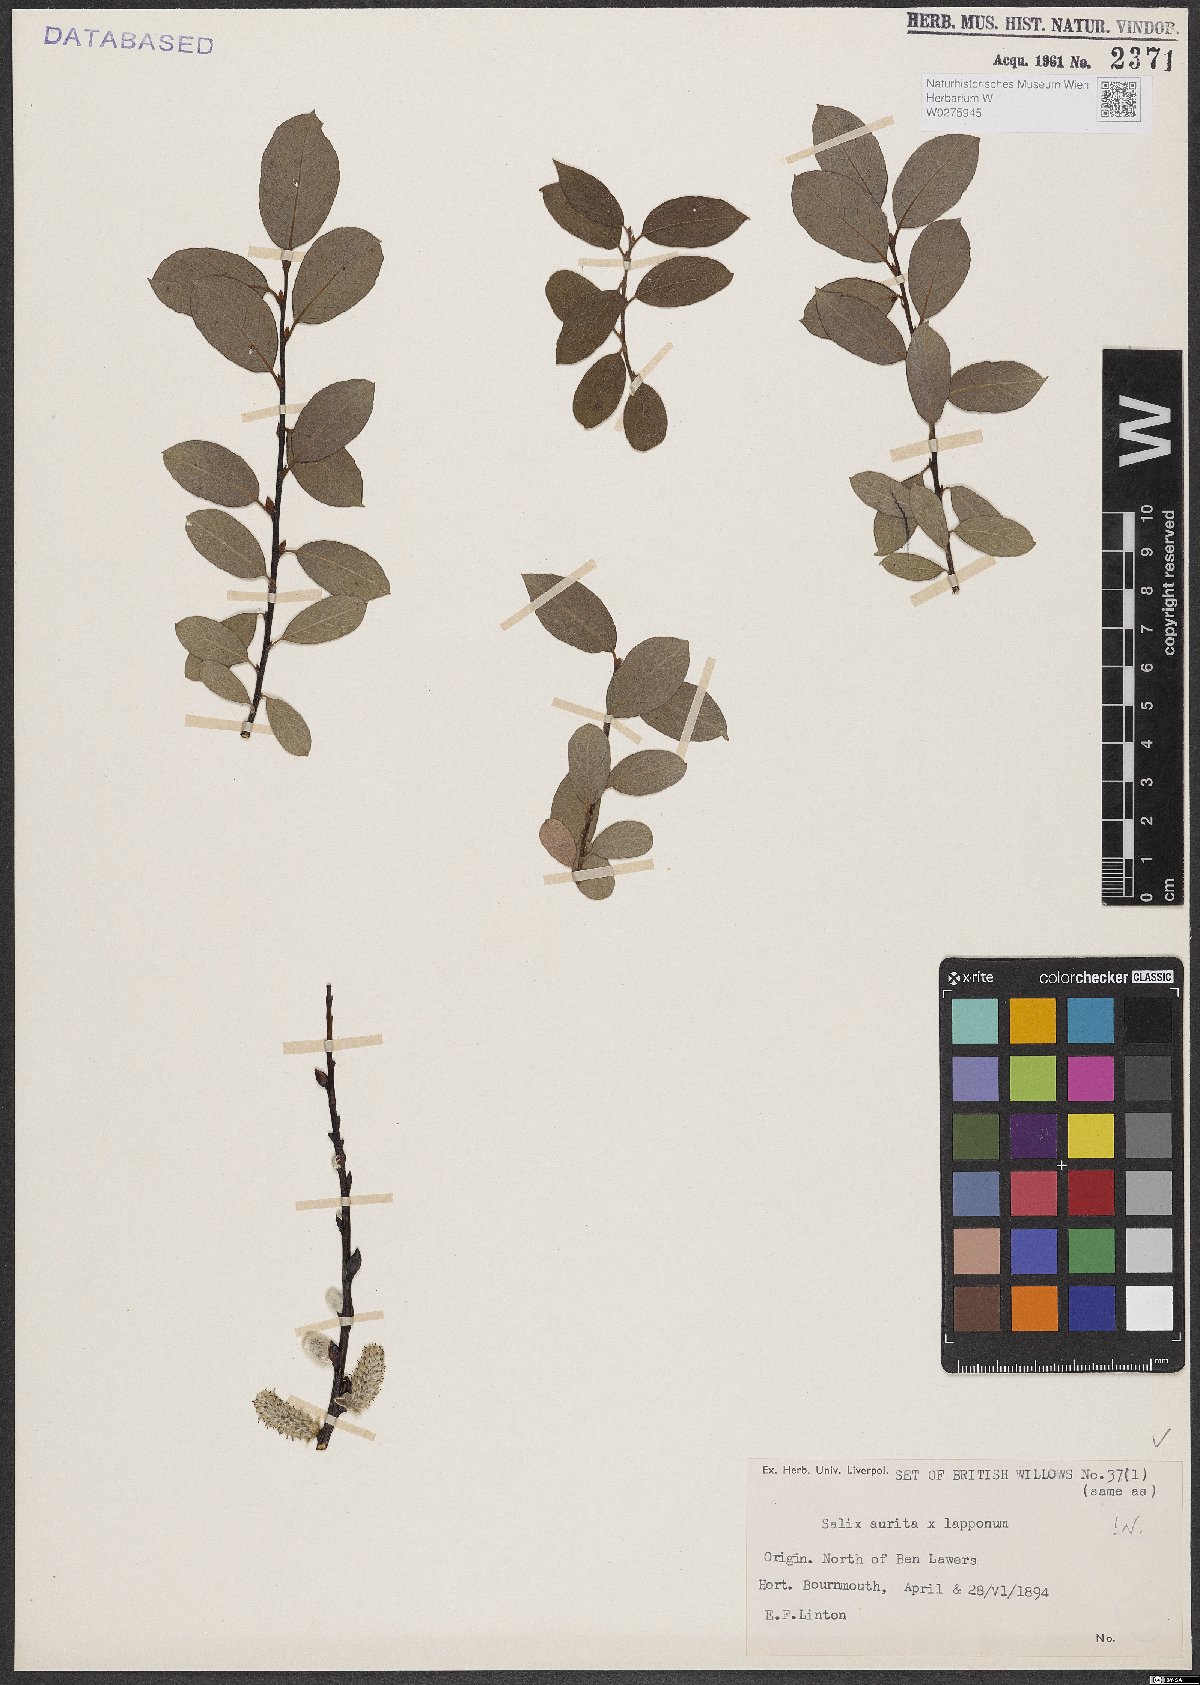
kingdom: Plantae
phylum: Tracheophyta
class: Magnoliopsida
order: Malpighiales
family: Salicaceae
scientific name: Salicaceae
